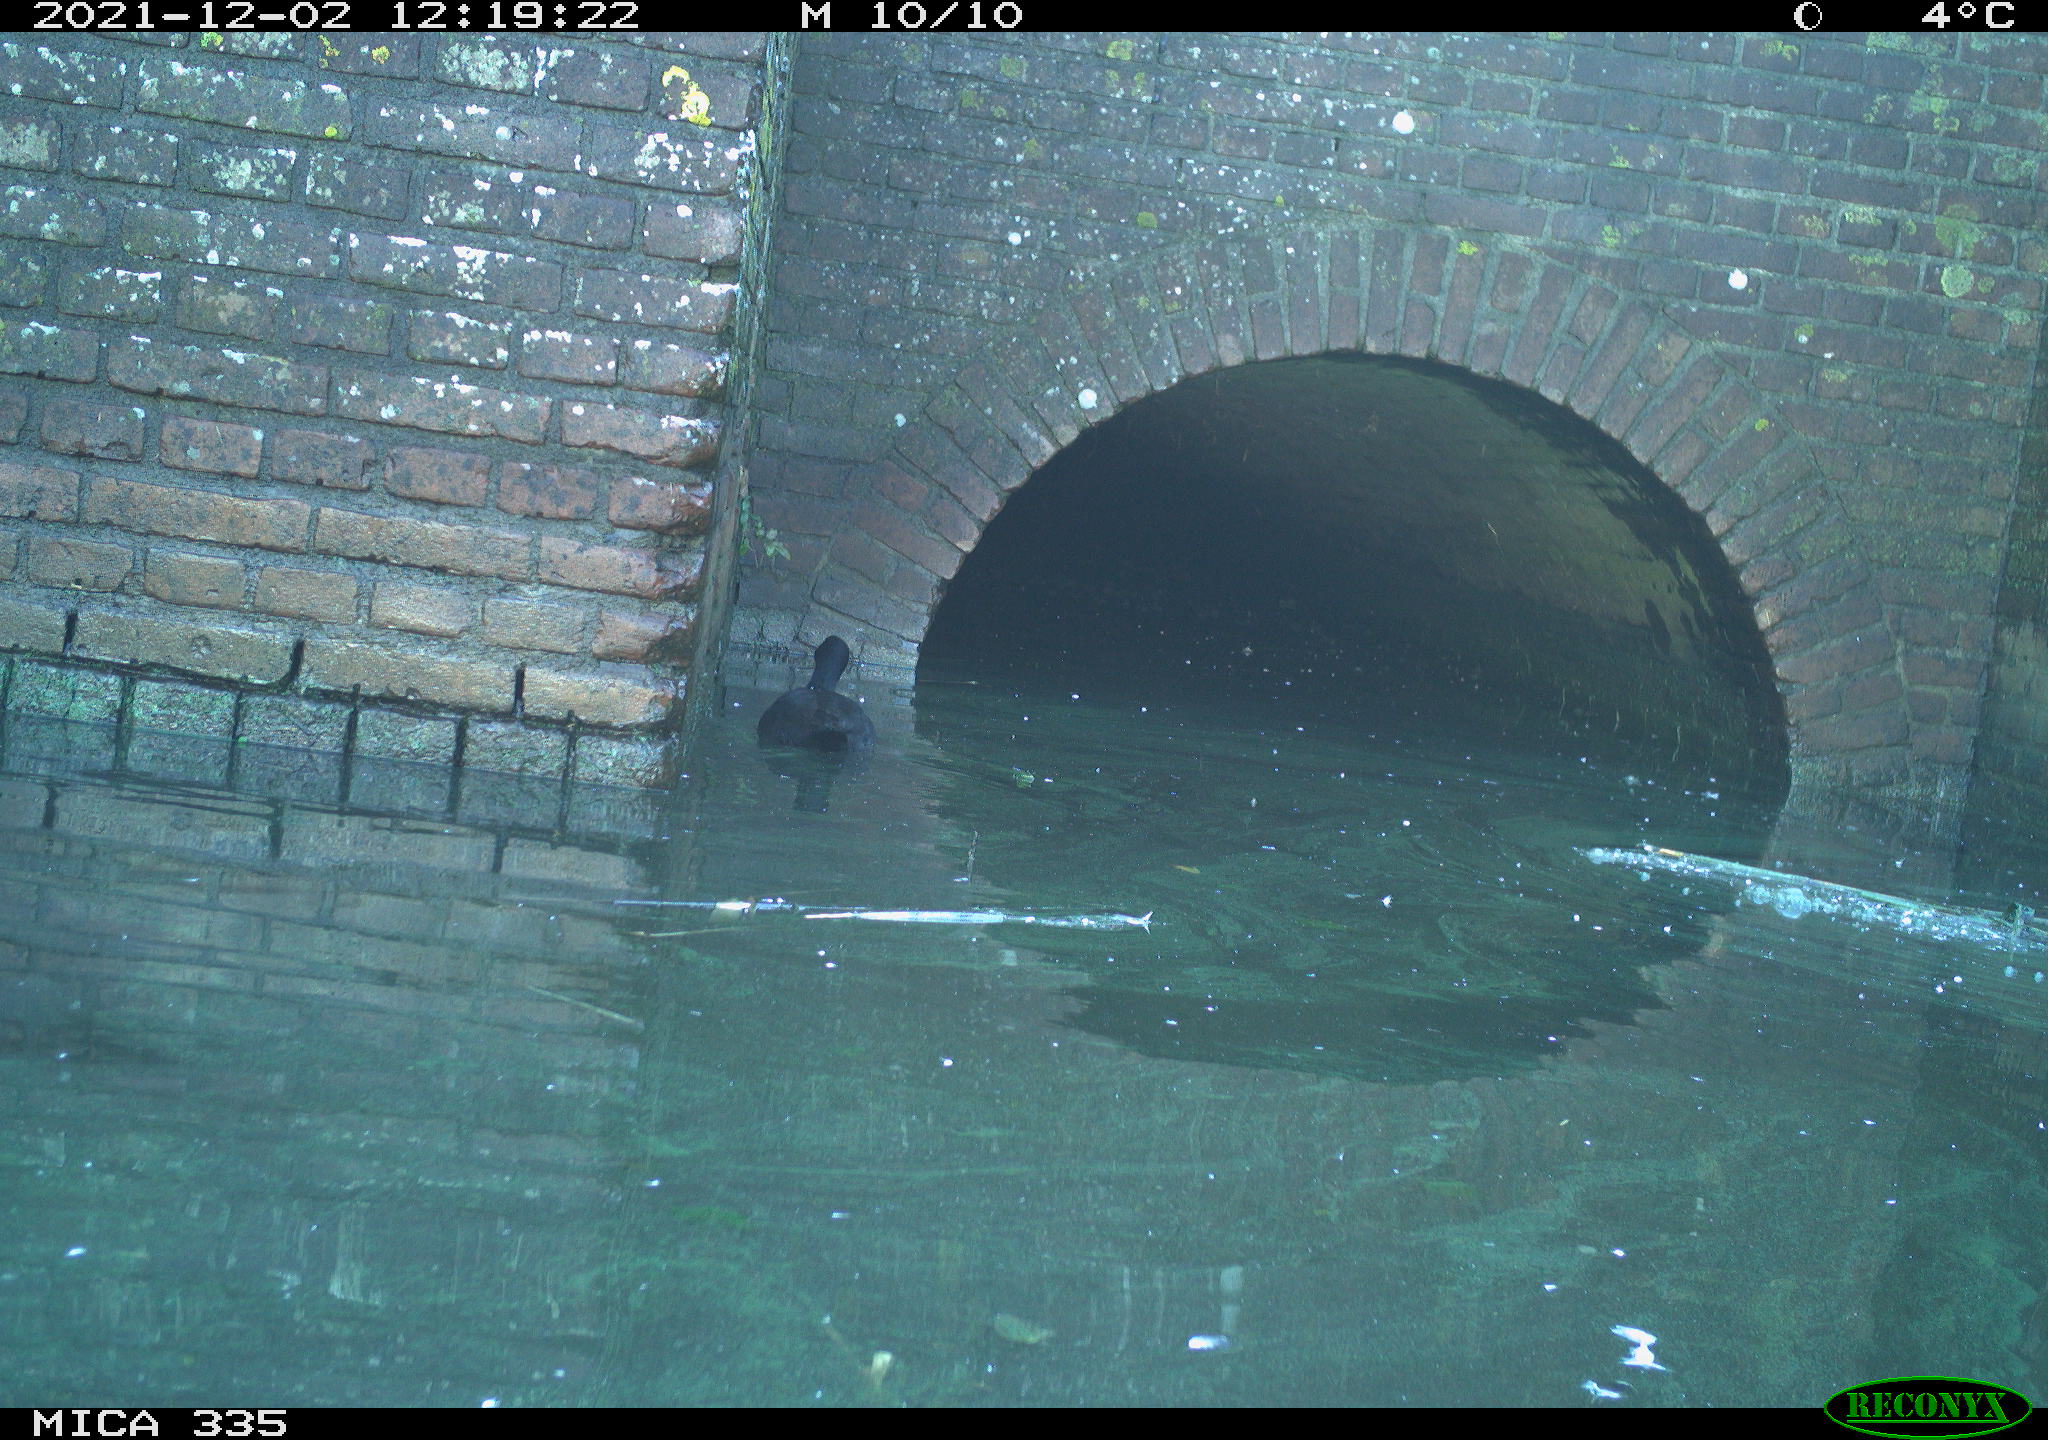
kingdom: Animalia
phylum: Chordata
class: Aves
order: Gruiformes
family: Rallidae
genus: Fulica
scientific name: Fulica atra
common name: Eurasian coot
